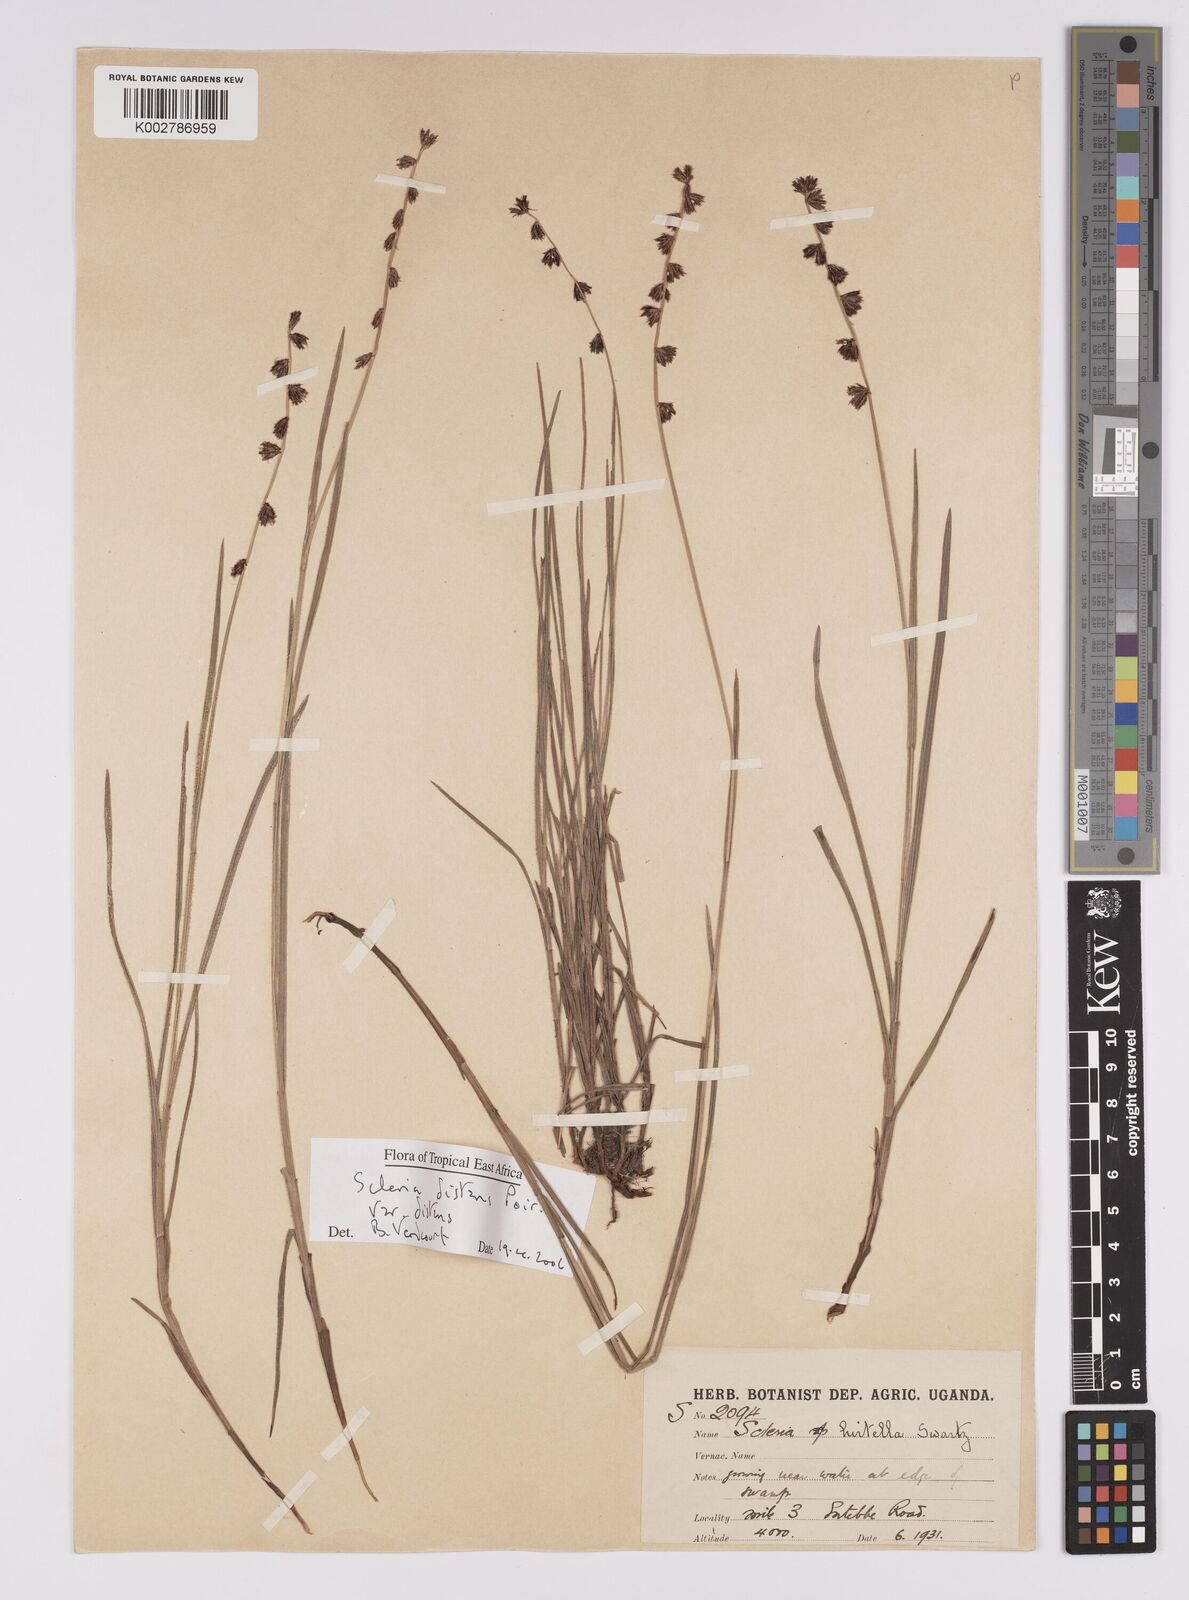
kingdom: Plantae
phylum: Tracheophyta
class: Liliopsida
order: Poales
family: Cyperaceae
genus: Scleria
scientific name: Scleria
